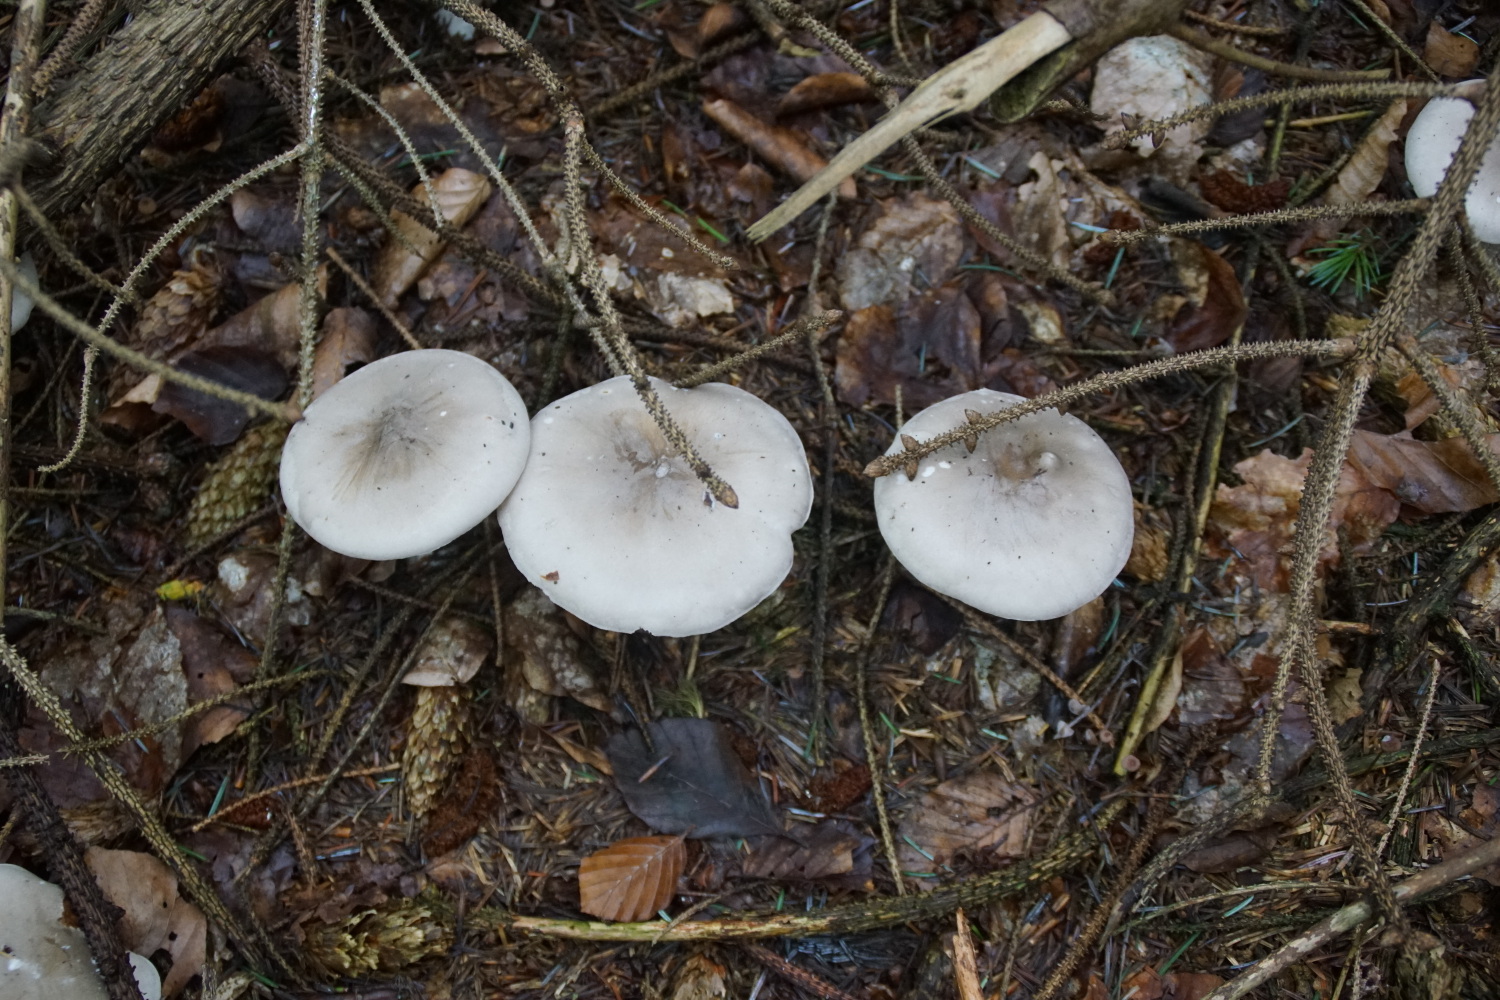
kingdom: Fungi
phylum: Basidiomycota
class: Agaricomycetes
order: Agaricales
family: Tricholomataceae
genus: Clitocybe
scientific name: Clitocybe nebularis
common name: tåge-tragthat
